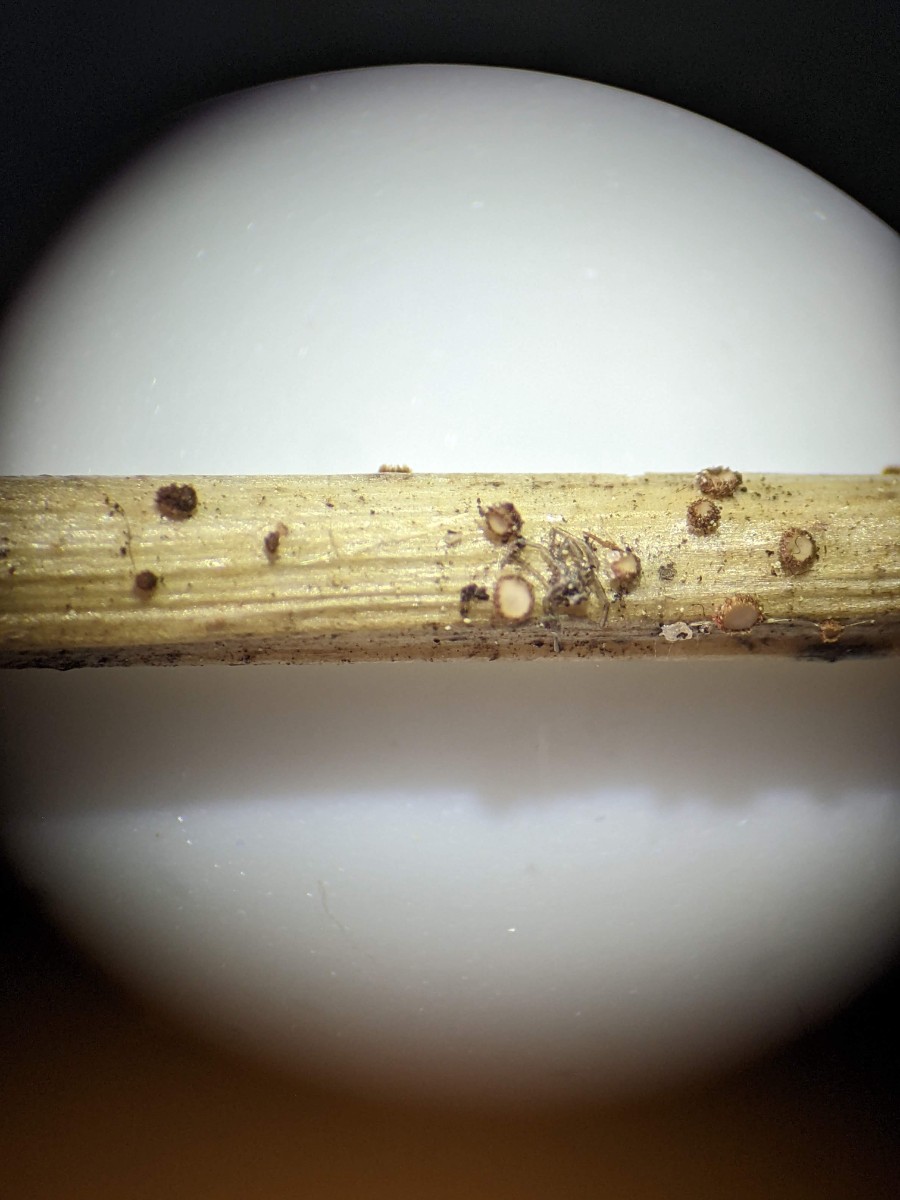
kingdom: Fungi
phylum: Ascomycota
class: Leotiomycetes
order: Helotiales
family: Solenopeziaceae
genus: Lasiobelonium
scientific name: Lasiobelonium nidulus
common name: rede-frynseskive
